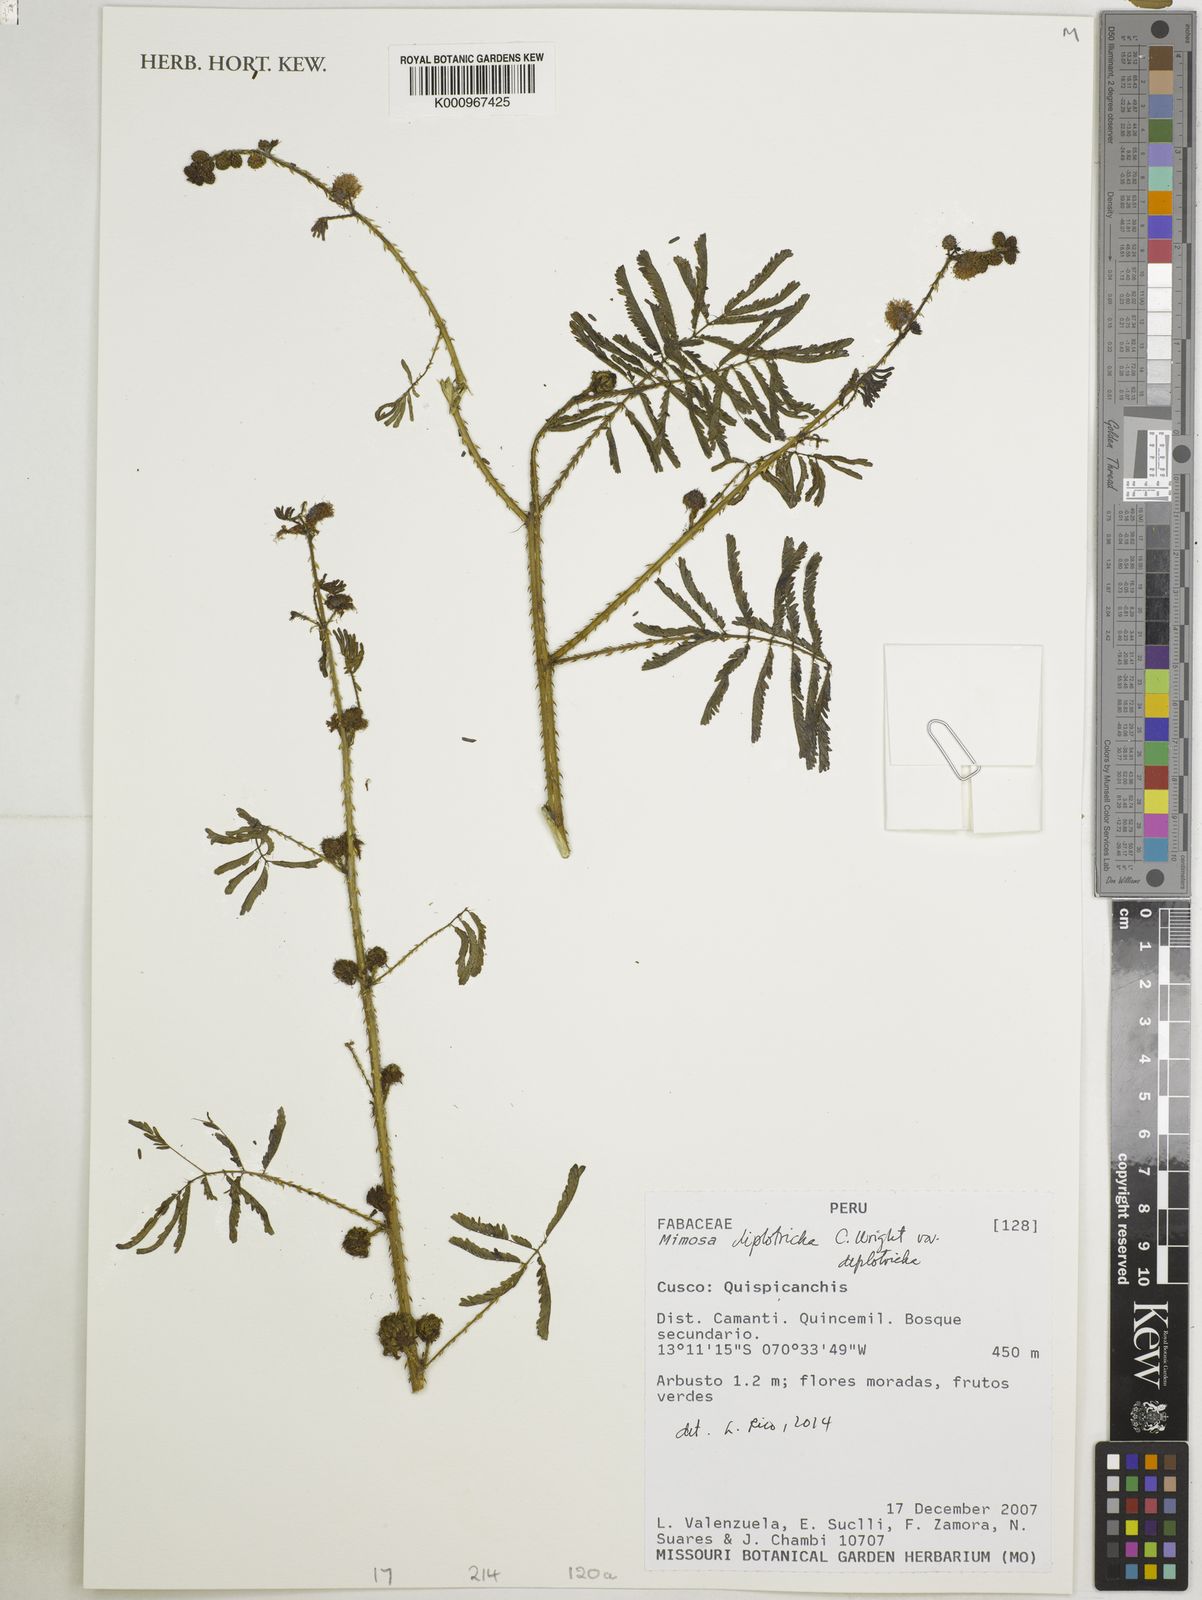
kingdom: Plantae
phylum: Tracheophyta
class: Magnoliopsida
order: Fabales
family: Fabaceae
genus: Mimosa
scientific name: Mimosa diplotricha
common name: Giant sensitive-plant
